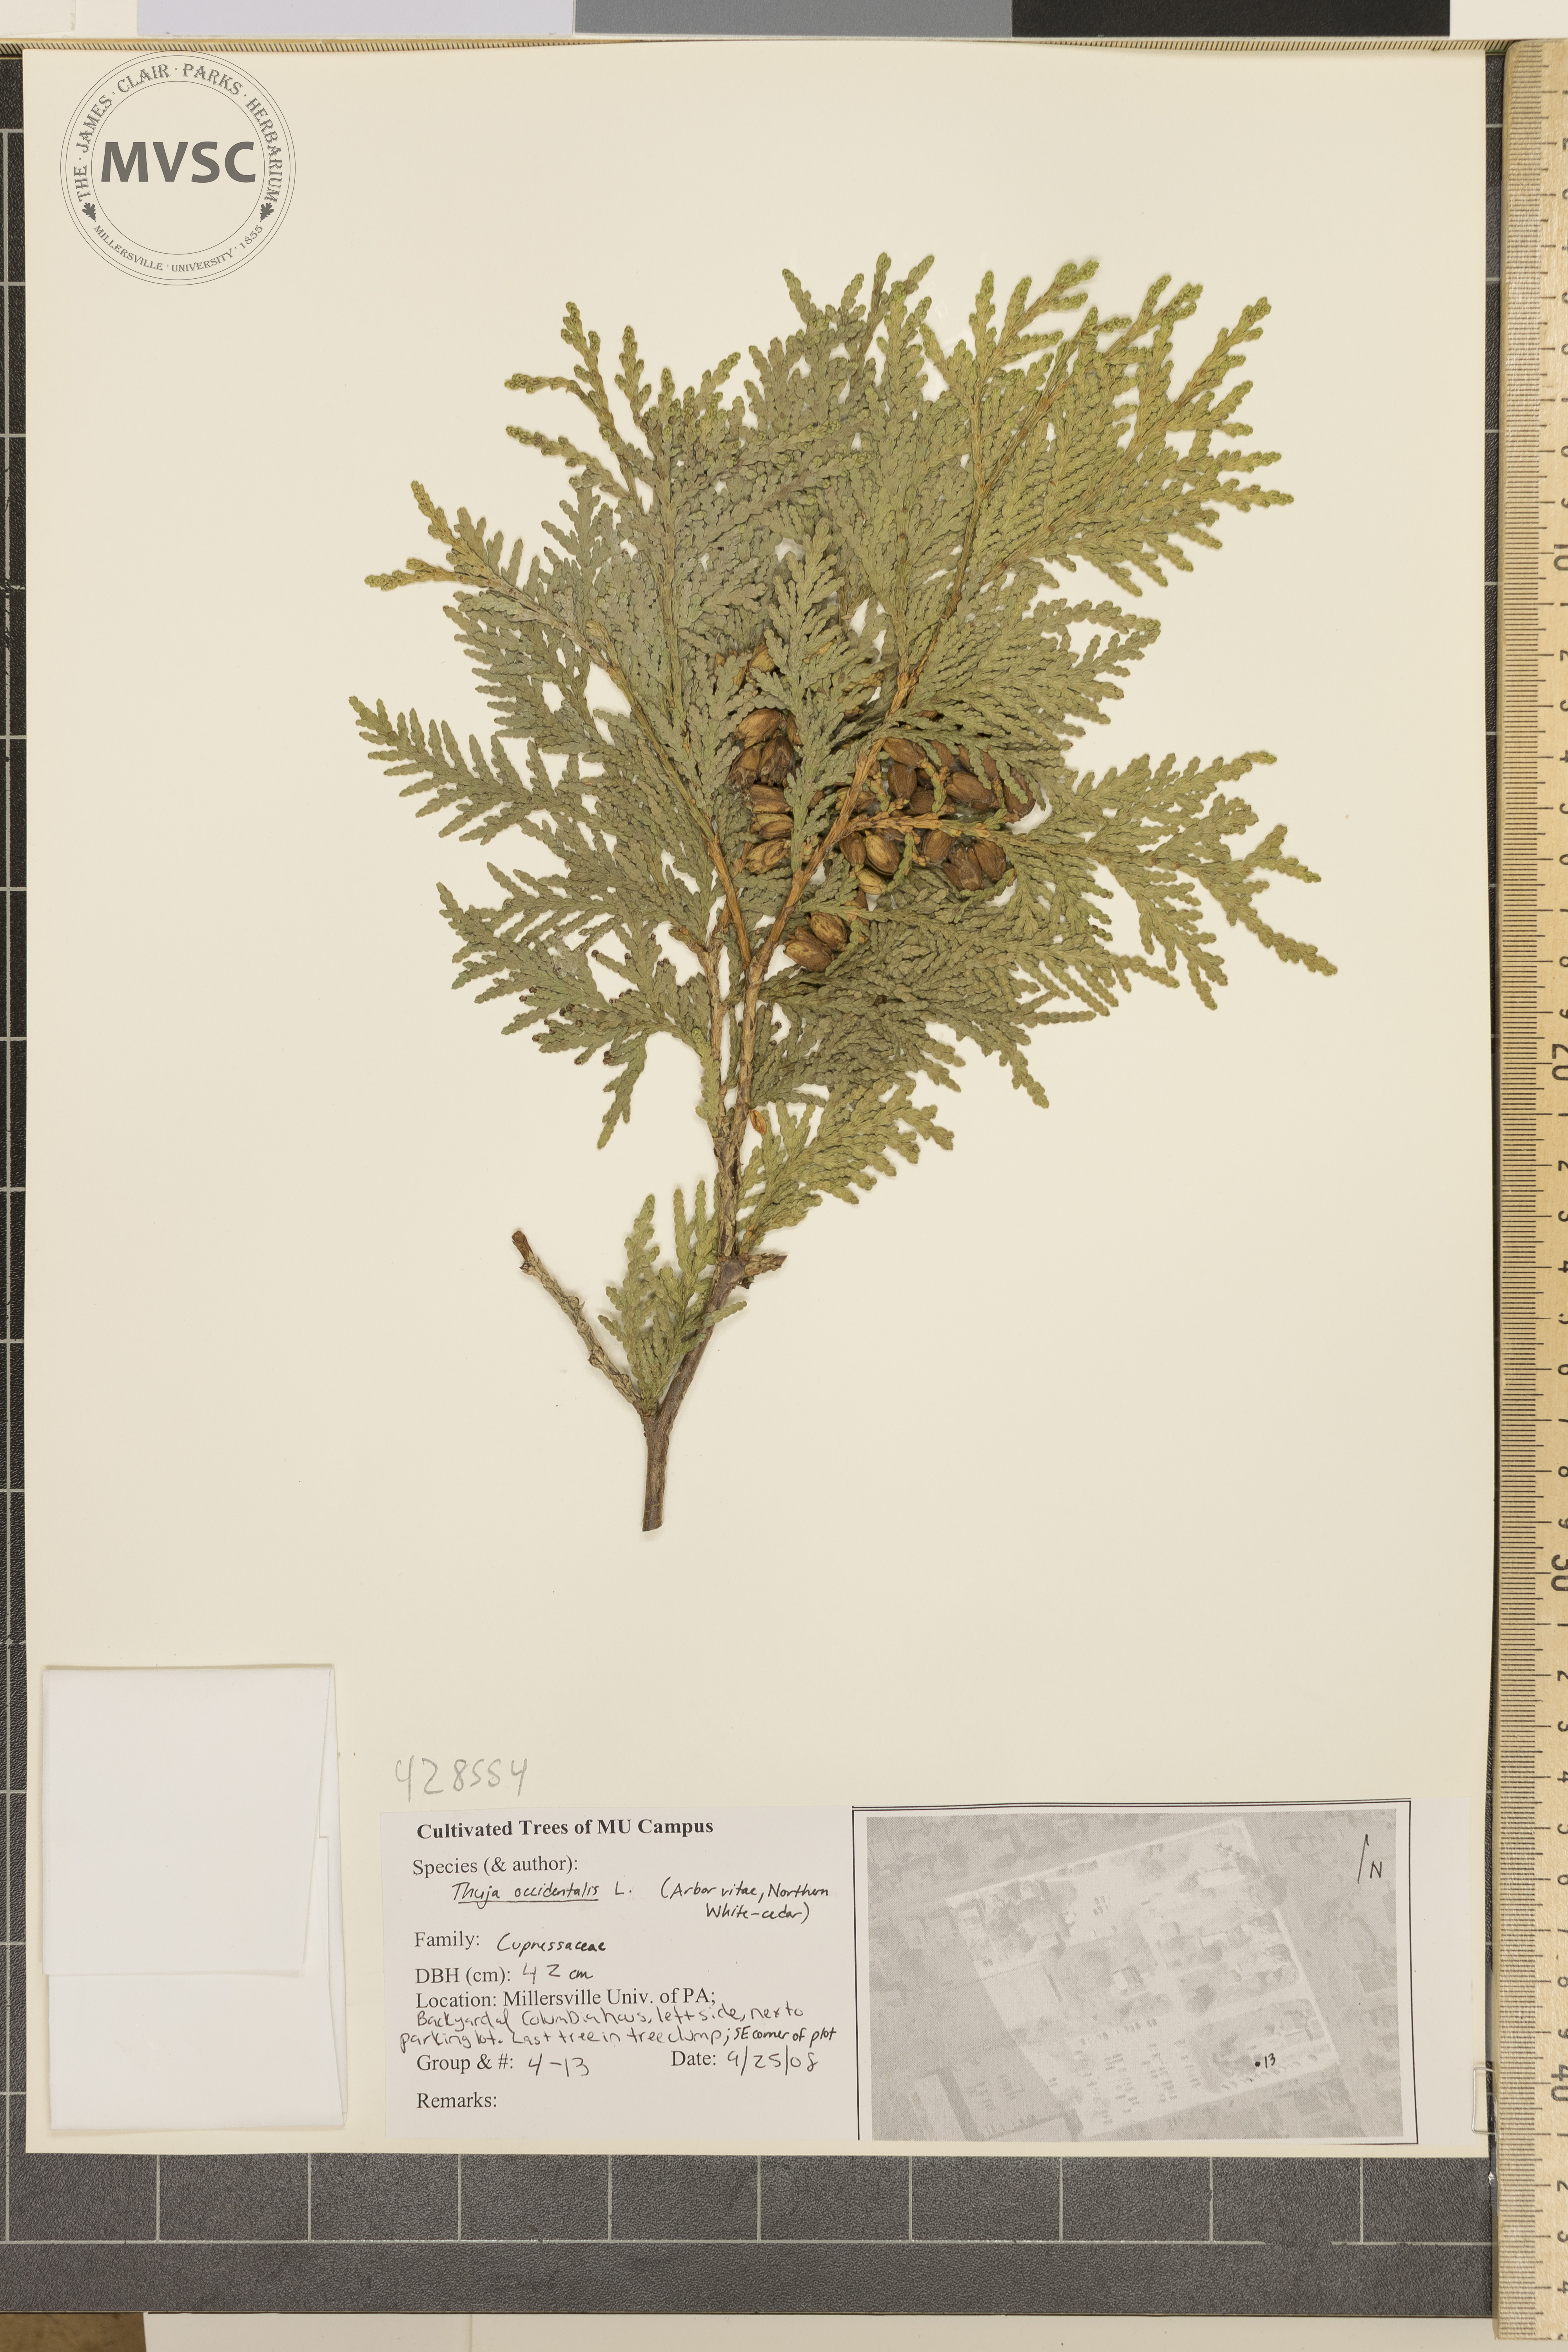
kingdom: Plantae
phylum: Tracheophyta
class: Pinopsida
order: Pinales
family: Cupressaceae
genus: Thuja
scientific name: Thuja occidentalis
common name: Arborvitae
